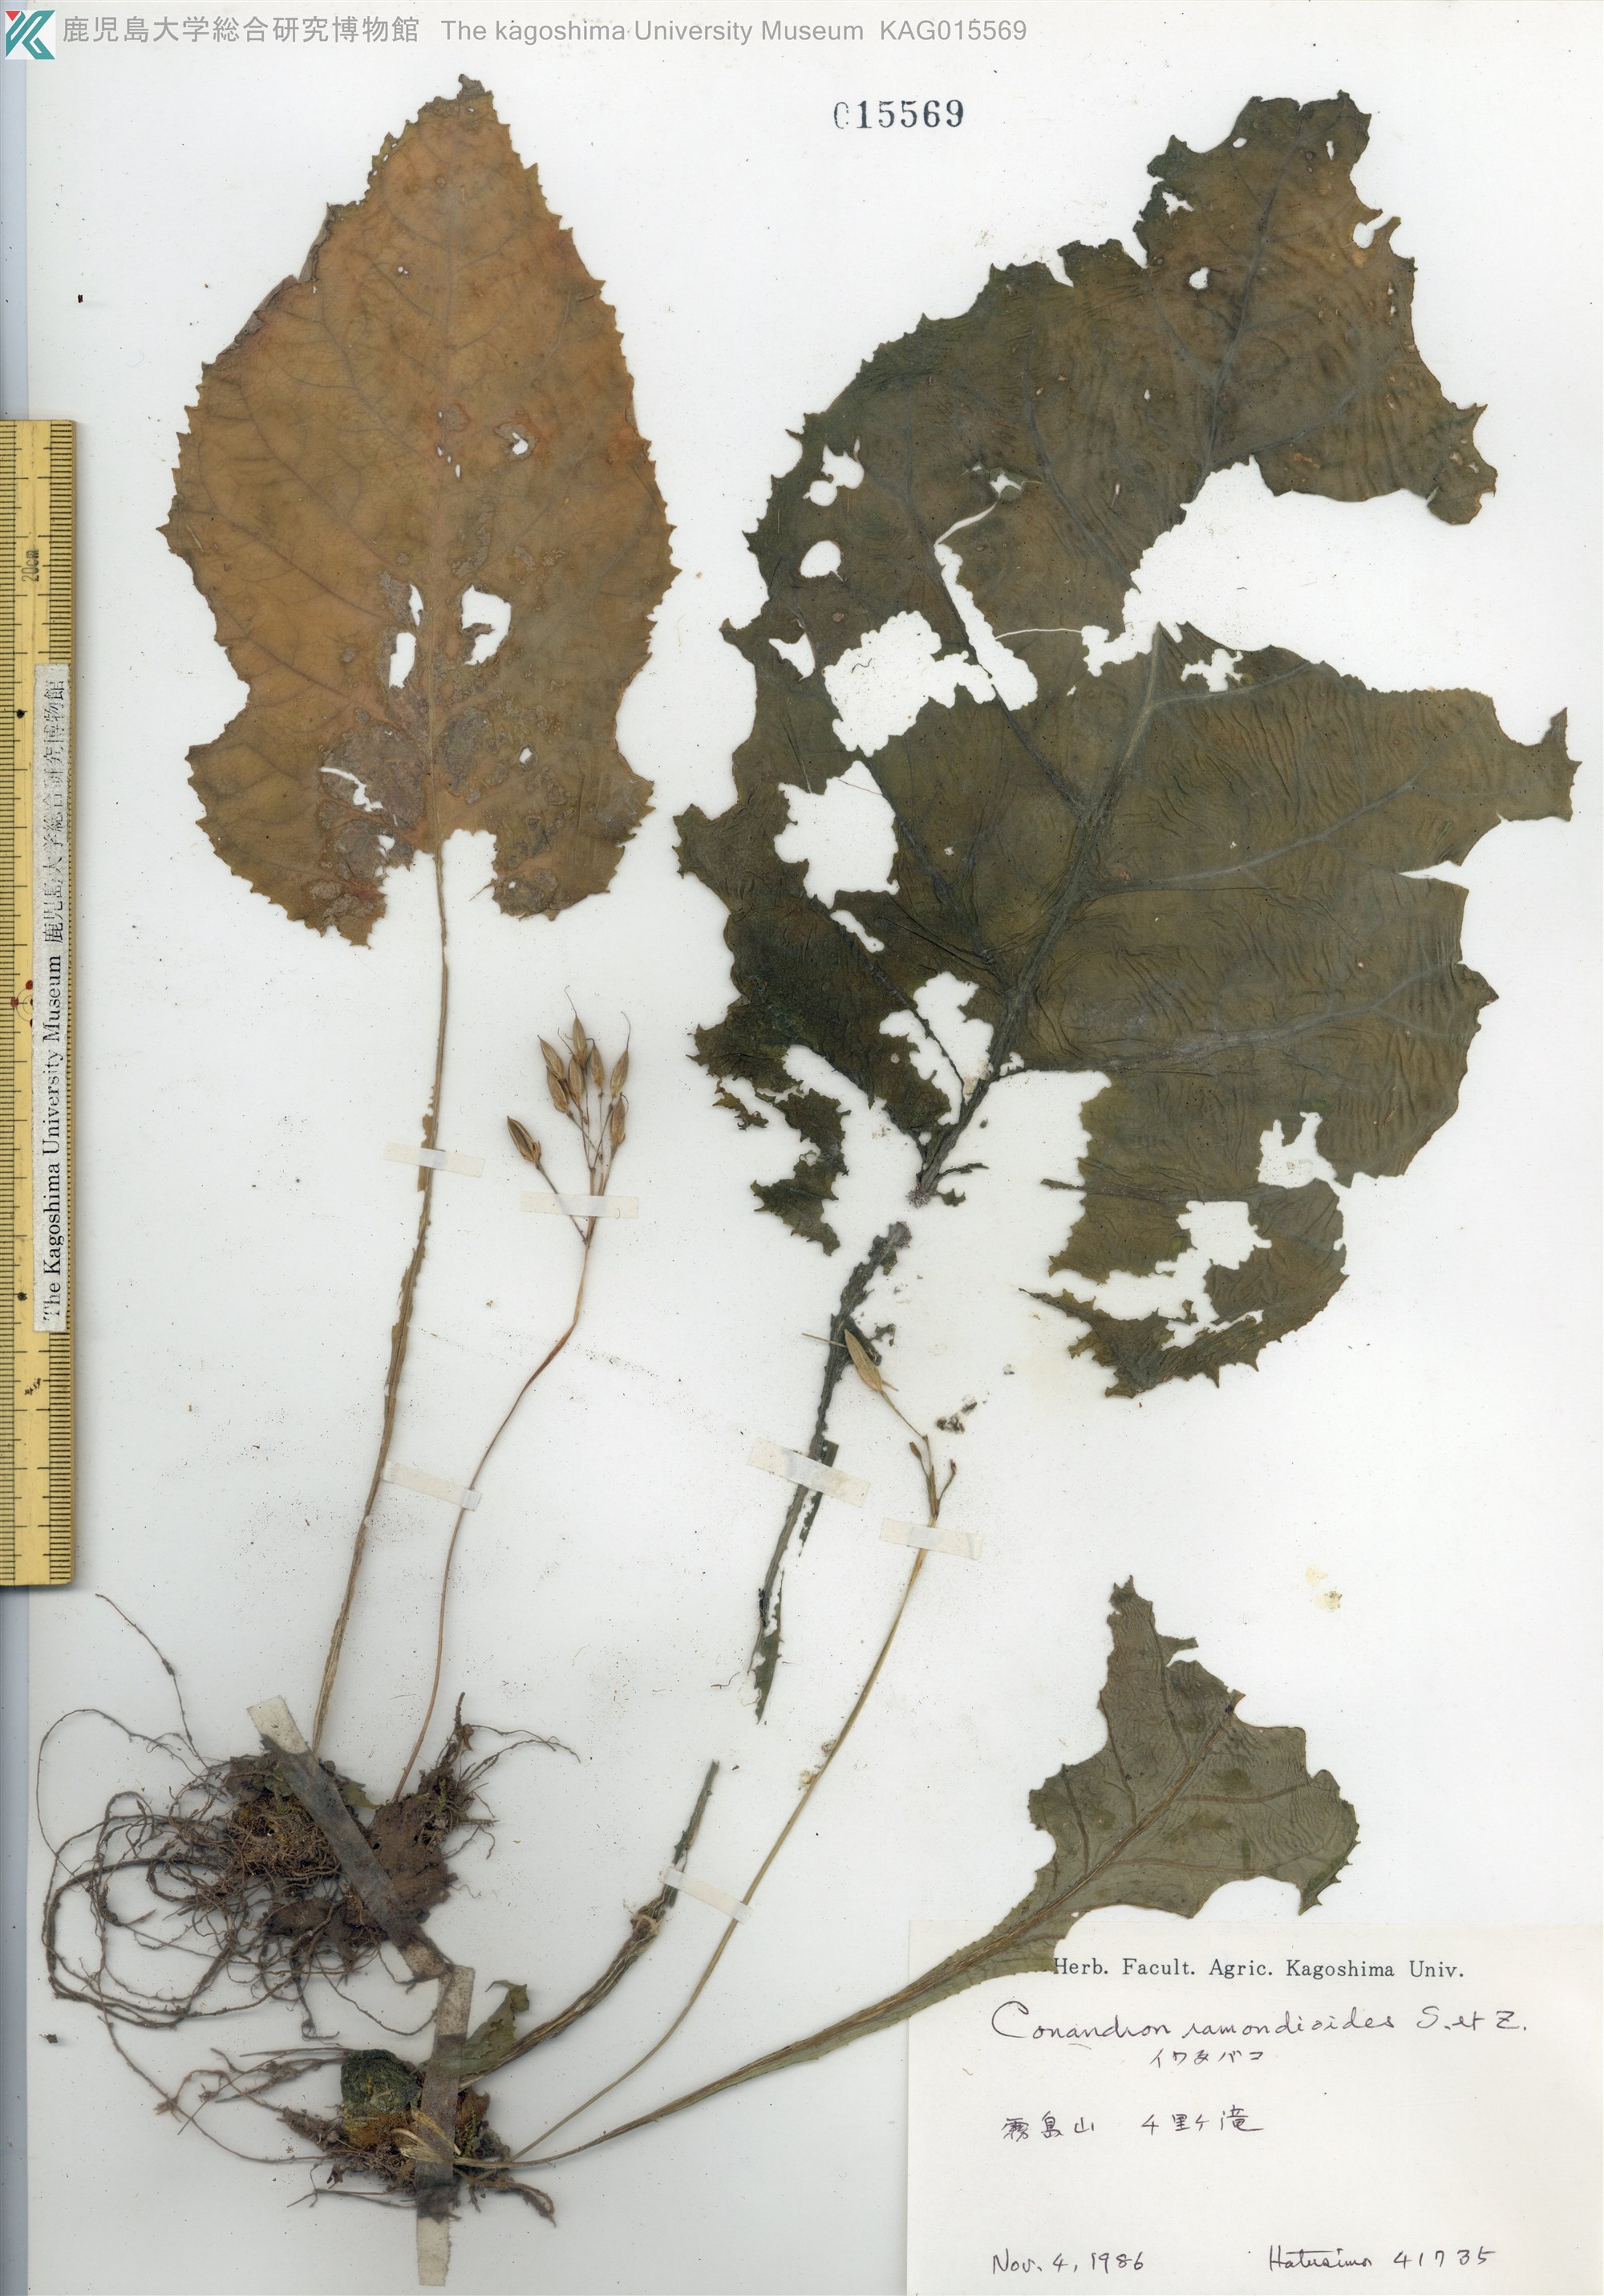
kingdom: Plantae
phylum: Tracheophyta
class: Magnoliopsida
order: Lamiales
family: Gesneriaceae
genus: Conandron
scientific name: Conandron ramondioides
